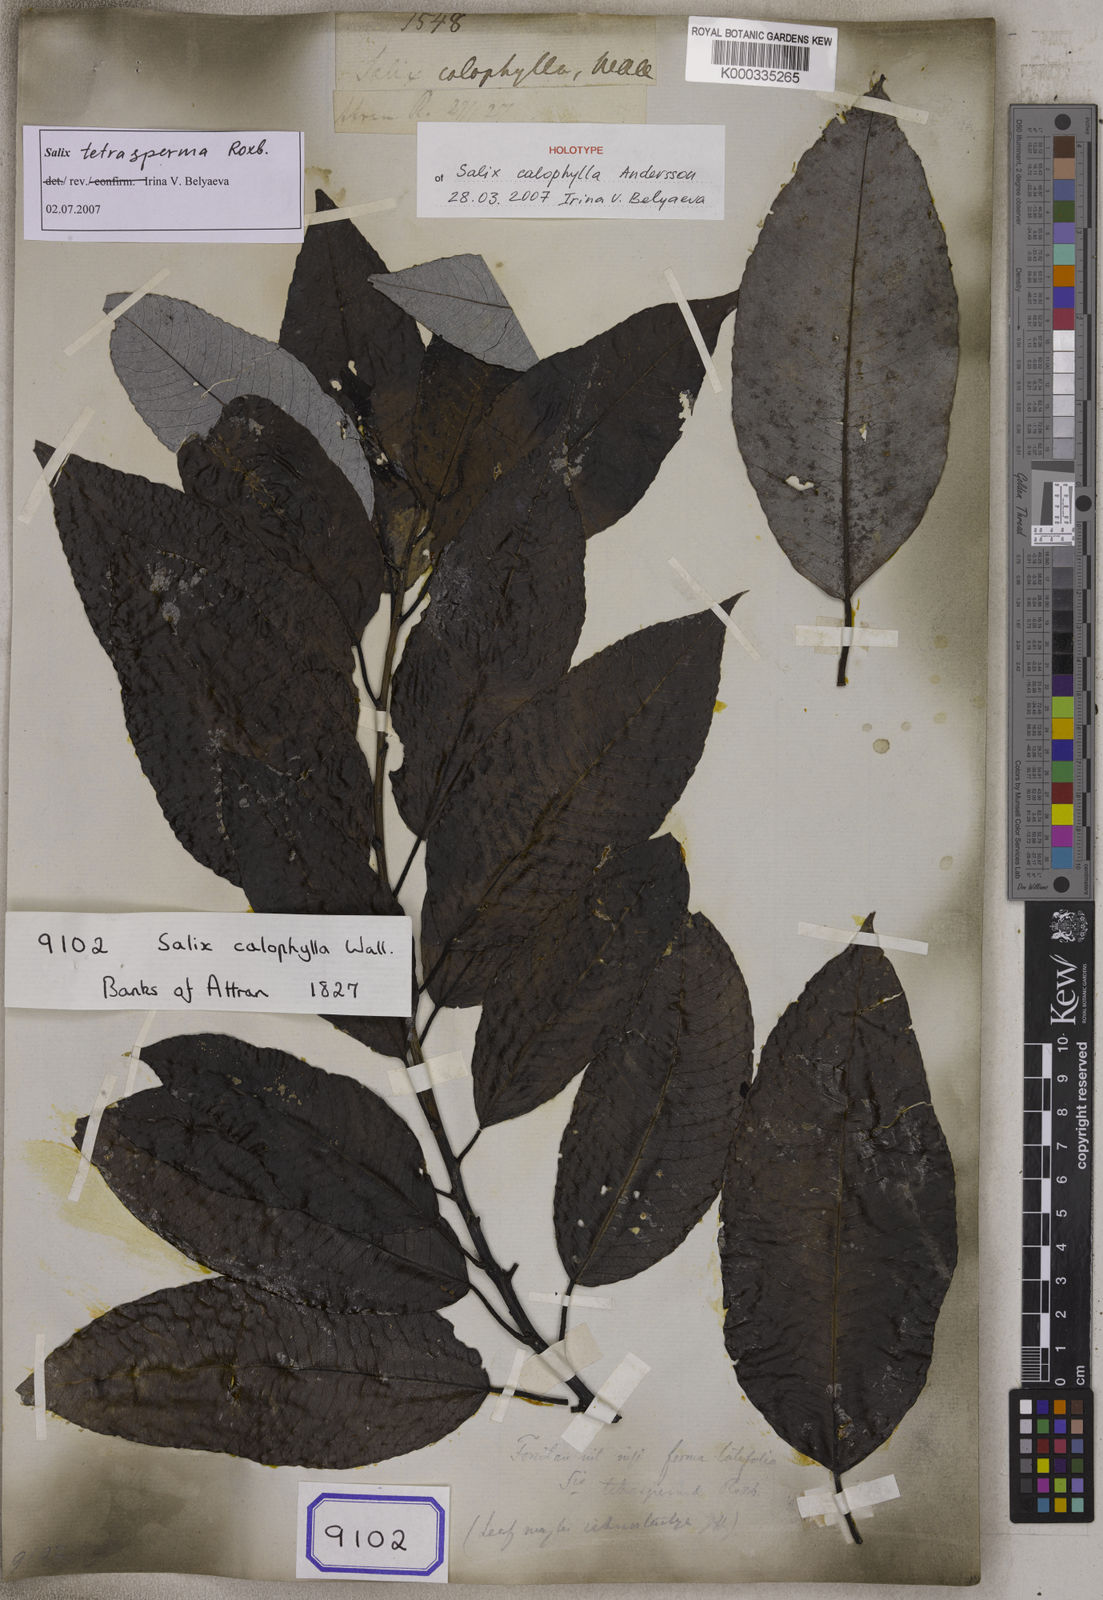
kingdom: Plantae
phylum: Tracheophyta
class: Magnoliopsida
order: Malpighiales
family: Salicaceae
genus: Salix
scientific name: Salix
